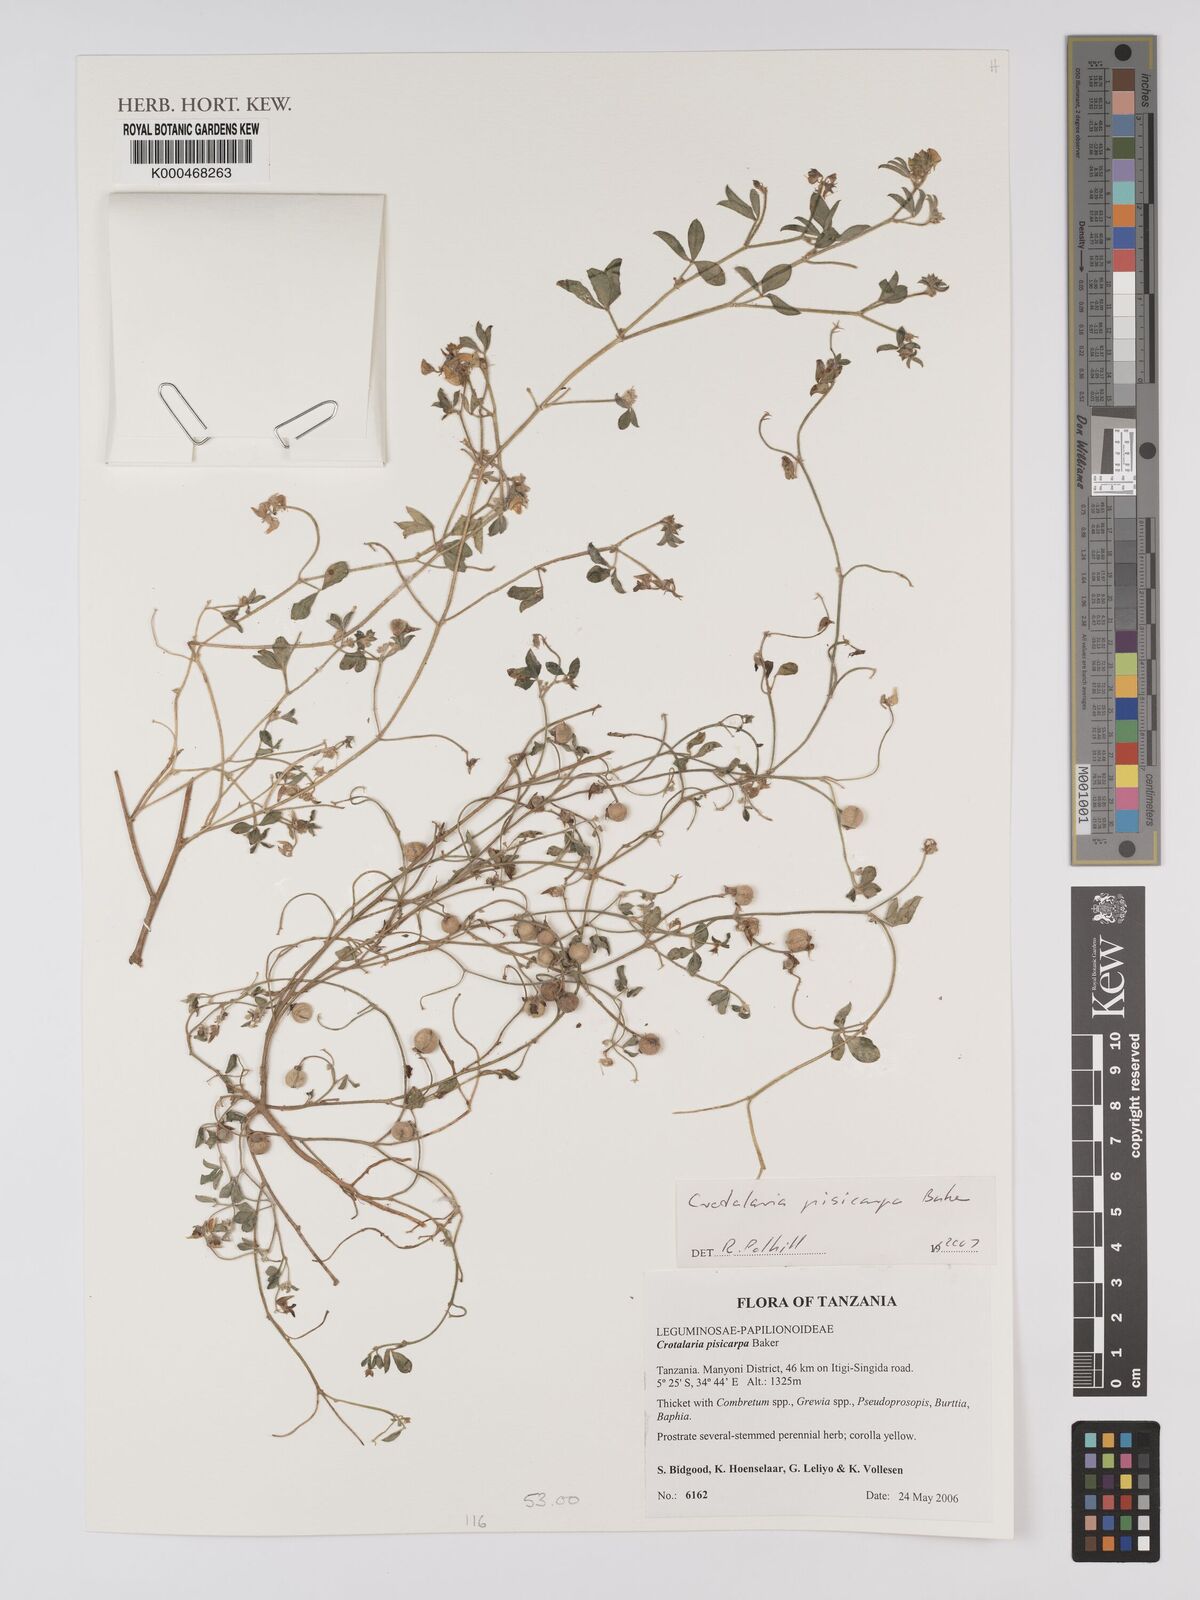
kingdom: Plantae
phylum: Tracheophyta
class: Magnoliopsida
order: Fabales
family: Fabaceae
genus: Crotalaria
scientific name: Crotalaria pisicarpa
